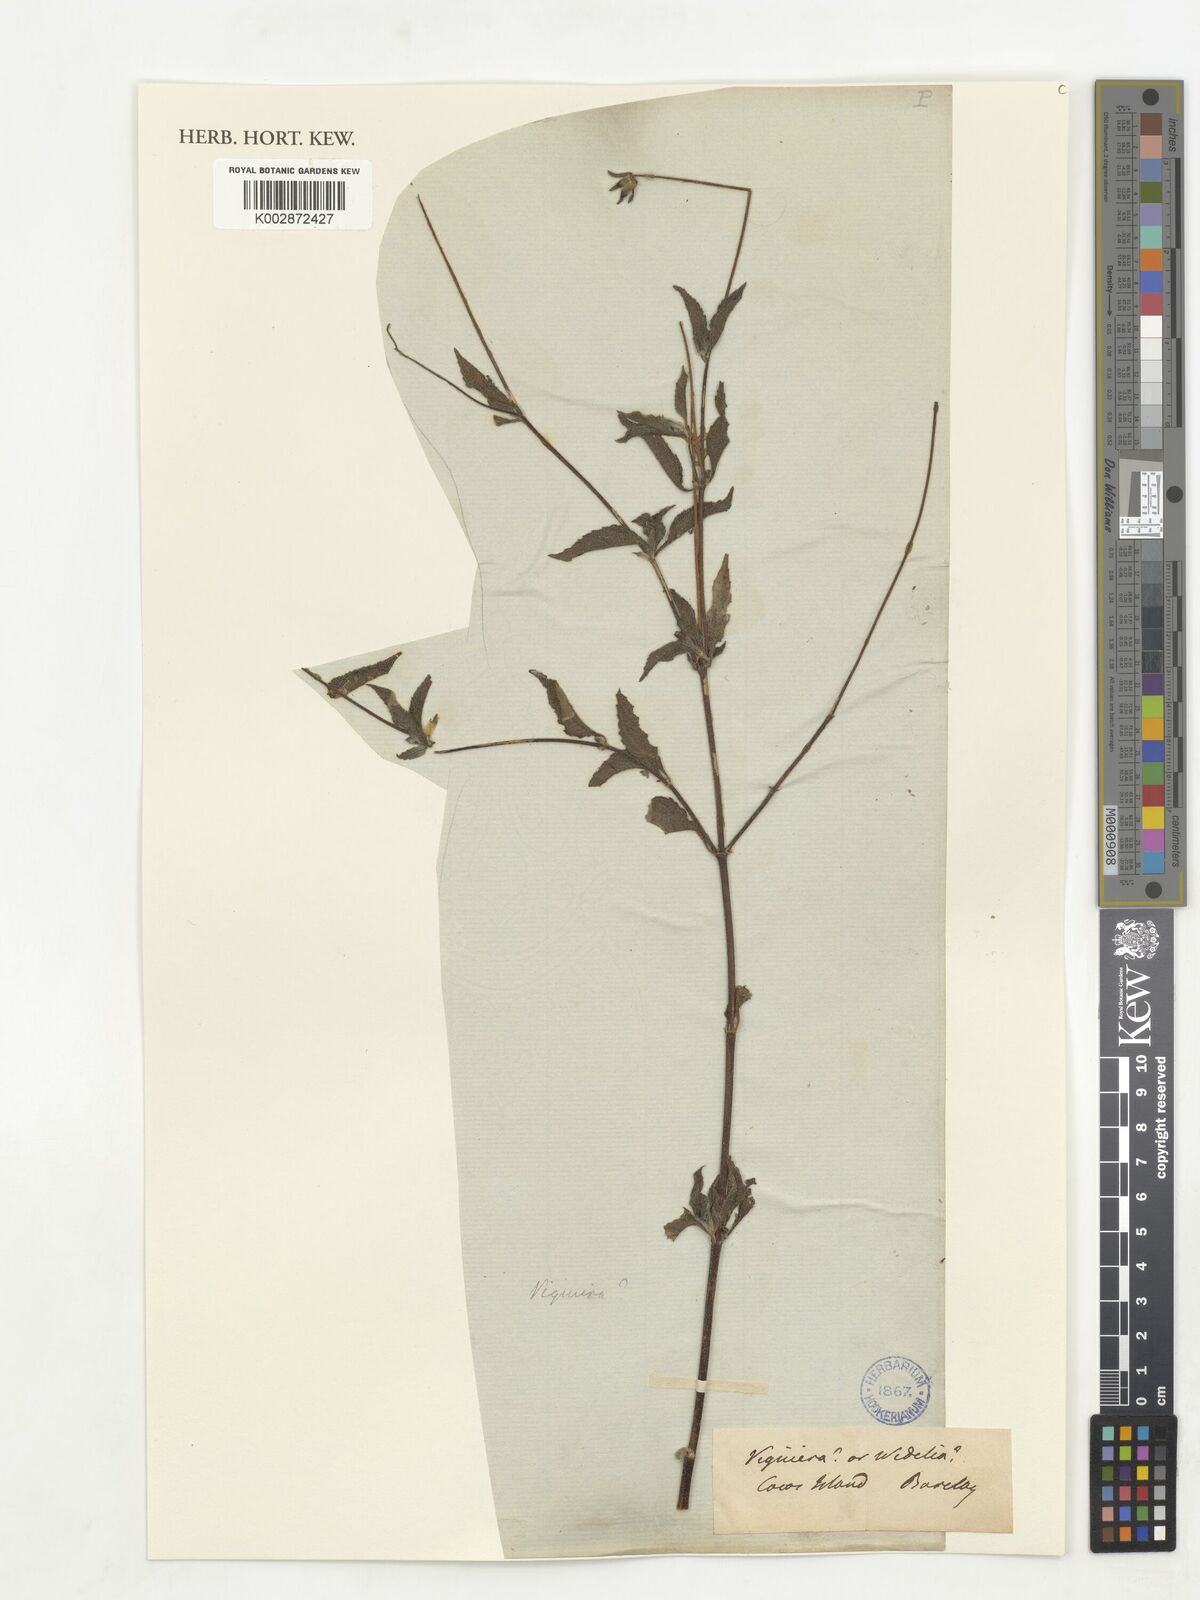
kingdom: Plantae
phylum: Tracheophyta
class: Magnoliopsida
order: Asterales
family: Asteraceae
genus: Viguiera
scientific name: Viguiera
